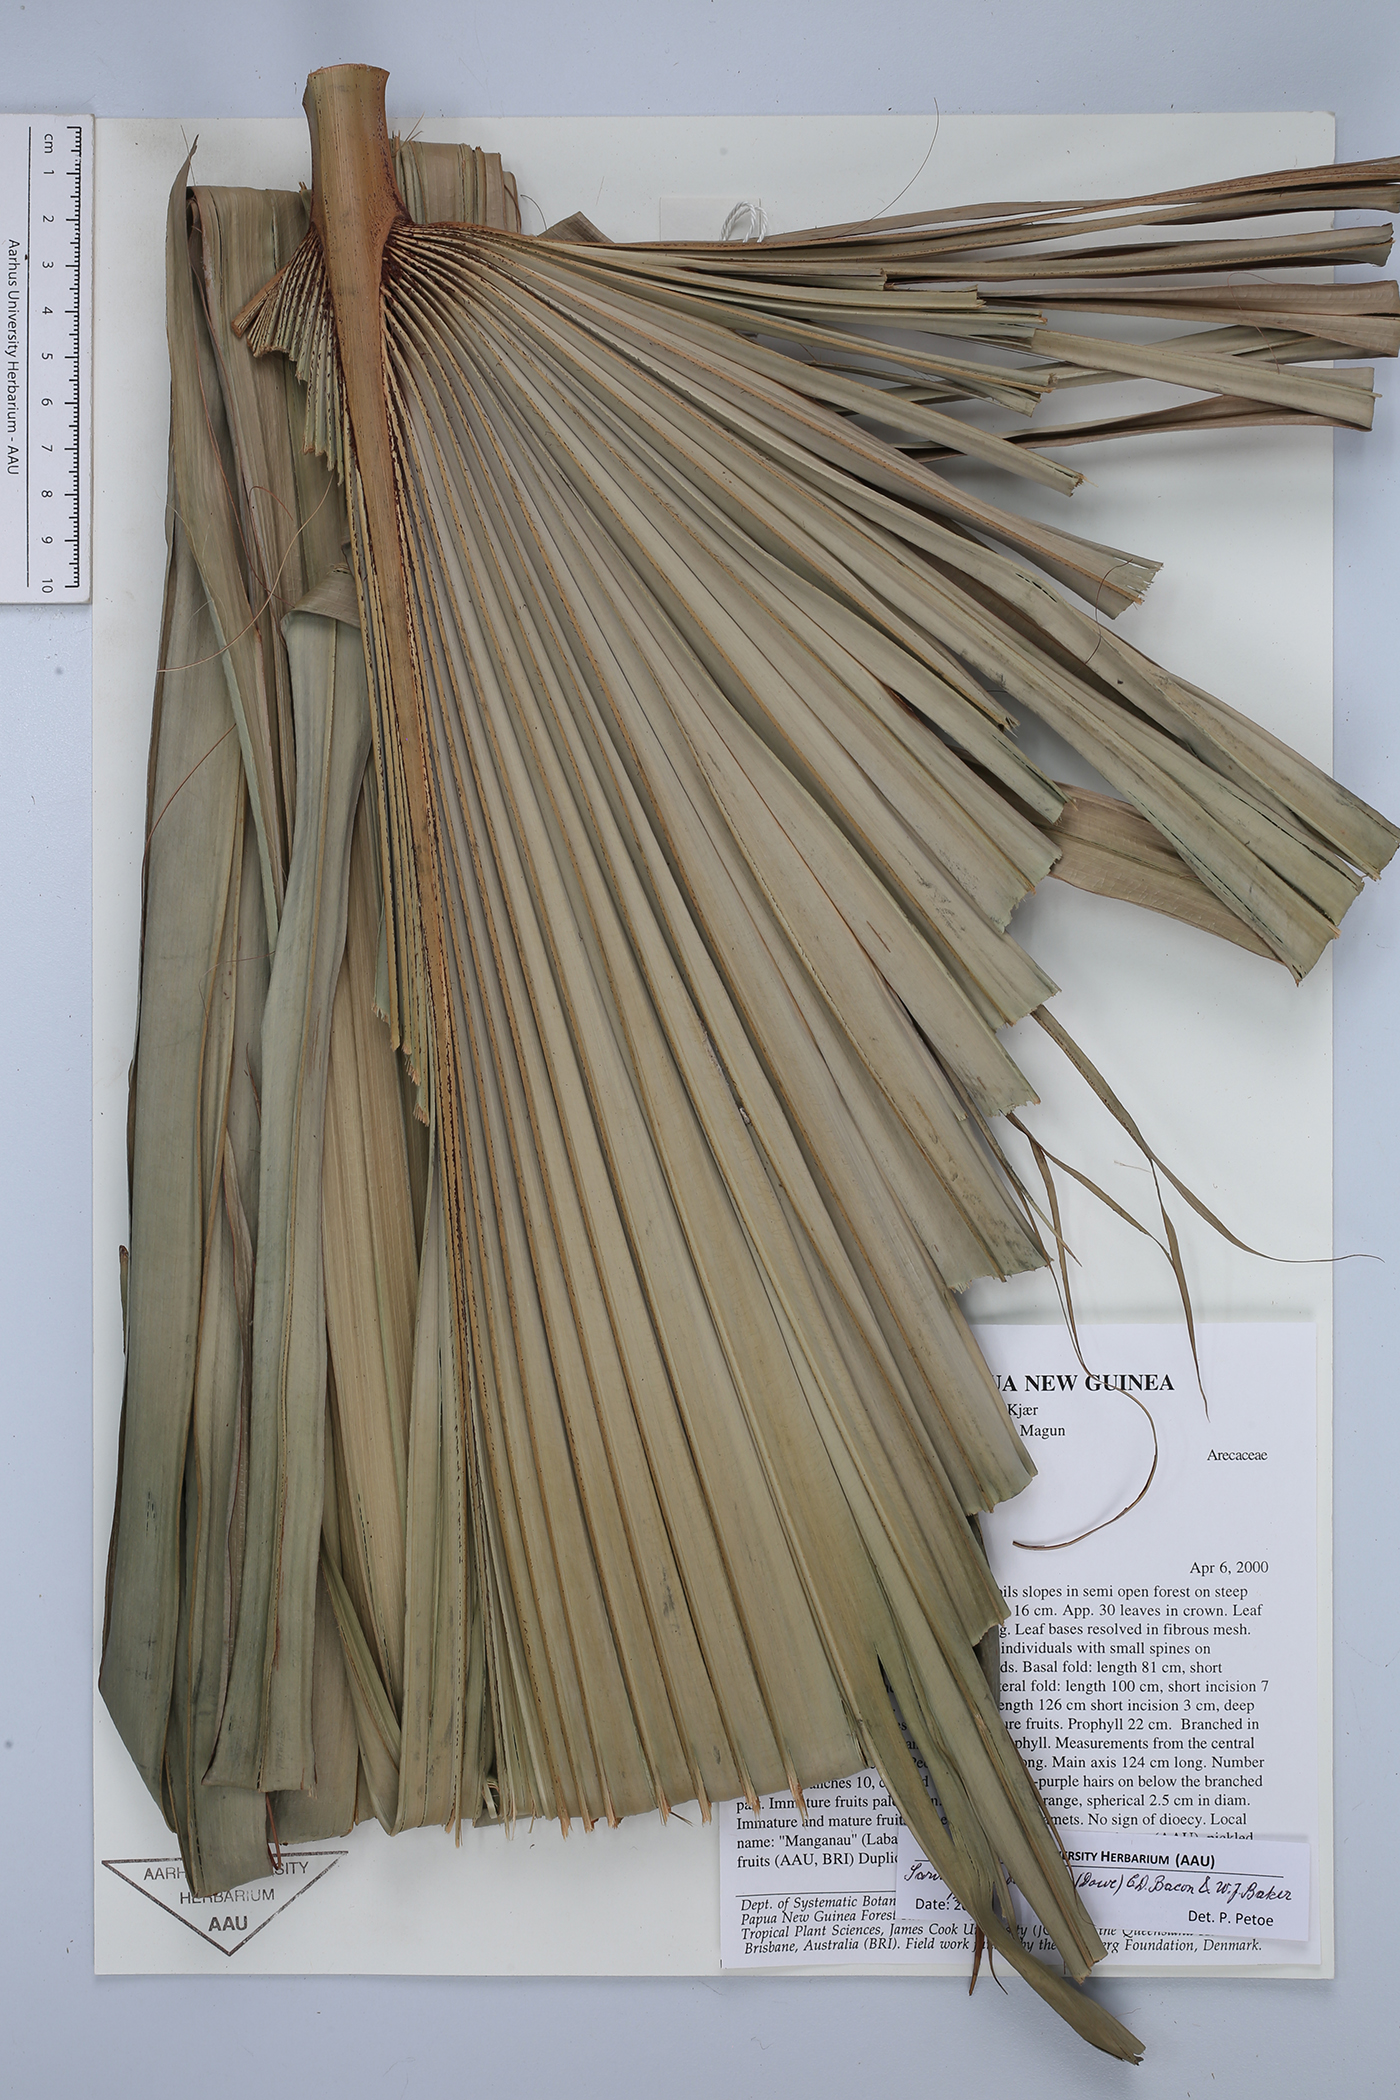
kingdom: Plantae
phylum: Tracheophyta
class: Liliopsida
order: Arecales
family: Arecaceae
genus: Saribus
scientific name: Saribus chocolatinus
